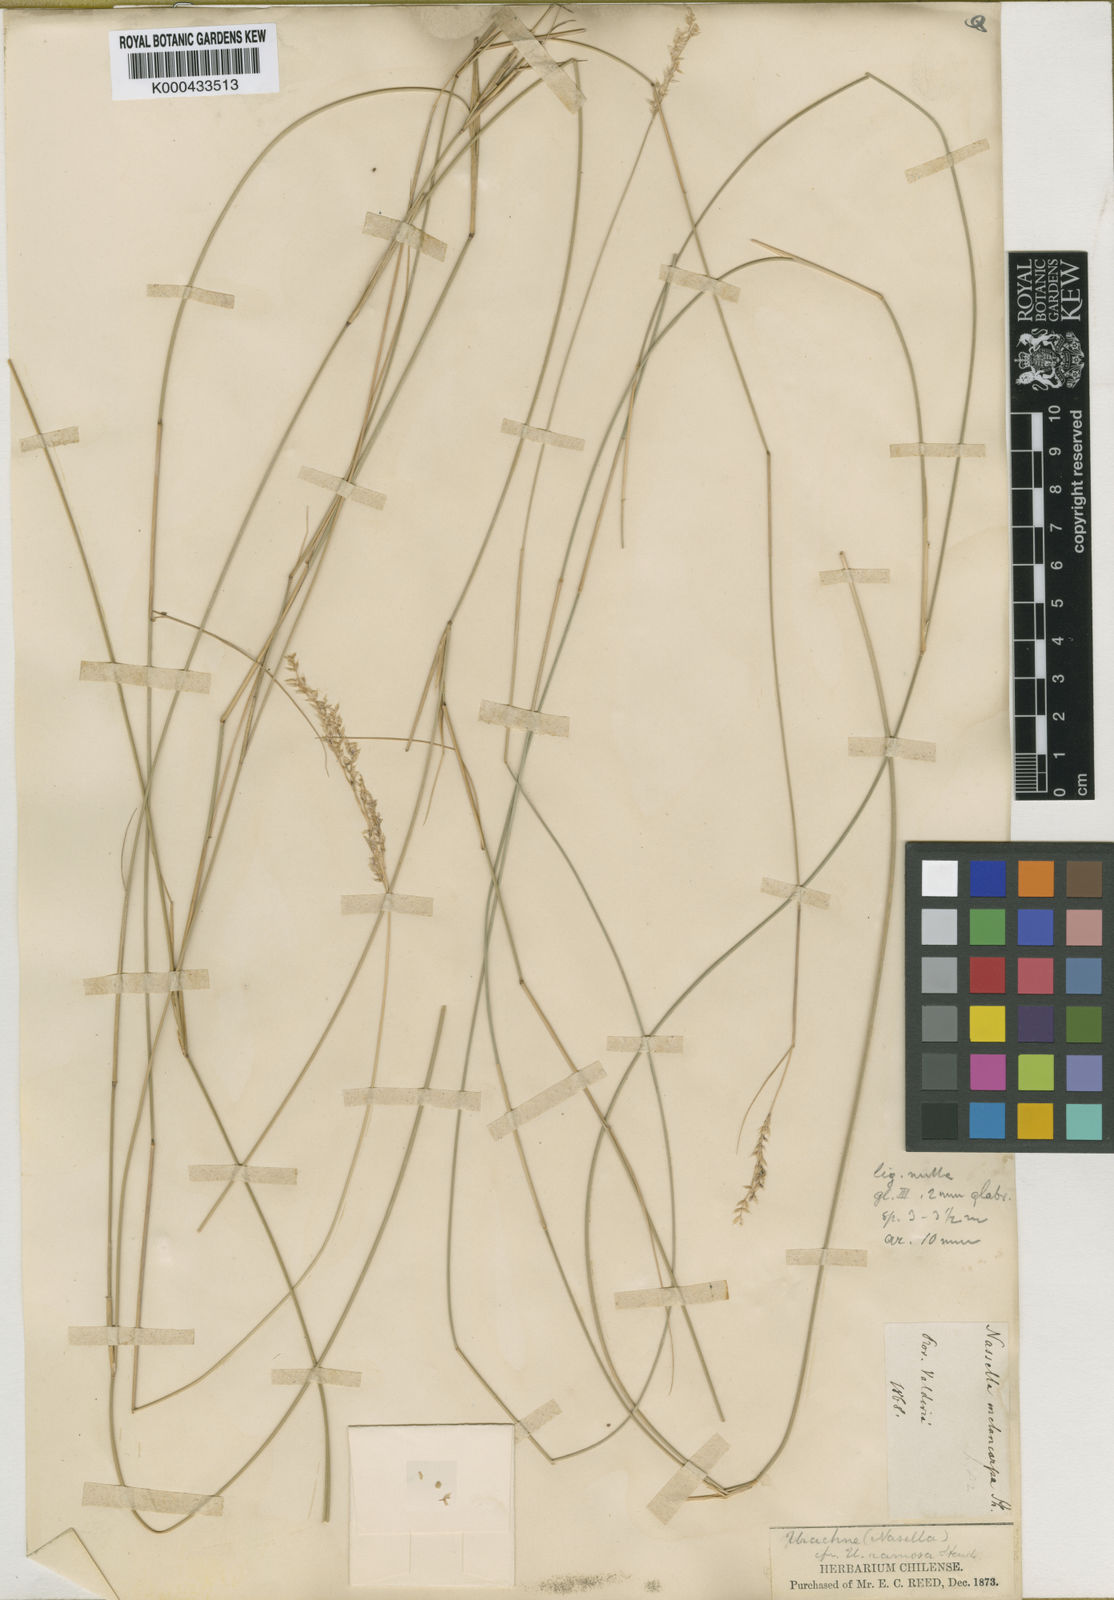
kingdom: Plantae
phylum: Tracheophyta
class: Liliopsida
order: Poales
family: Poaceae
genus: Nassella
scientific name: Nassella chilensis
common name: Chilean needlegrass
